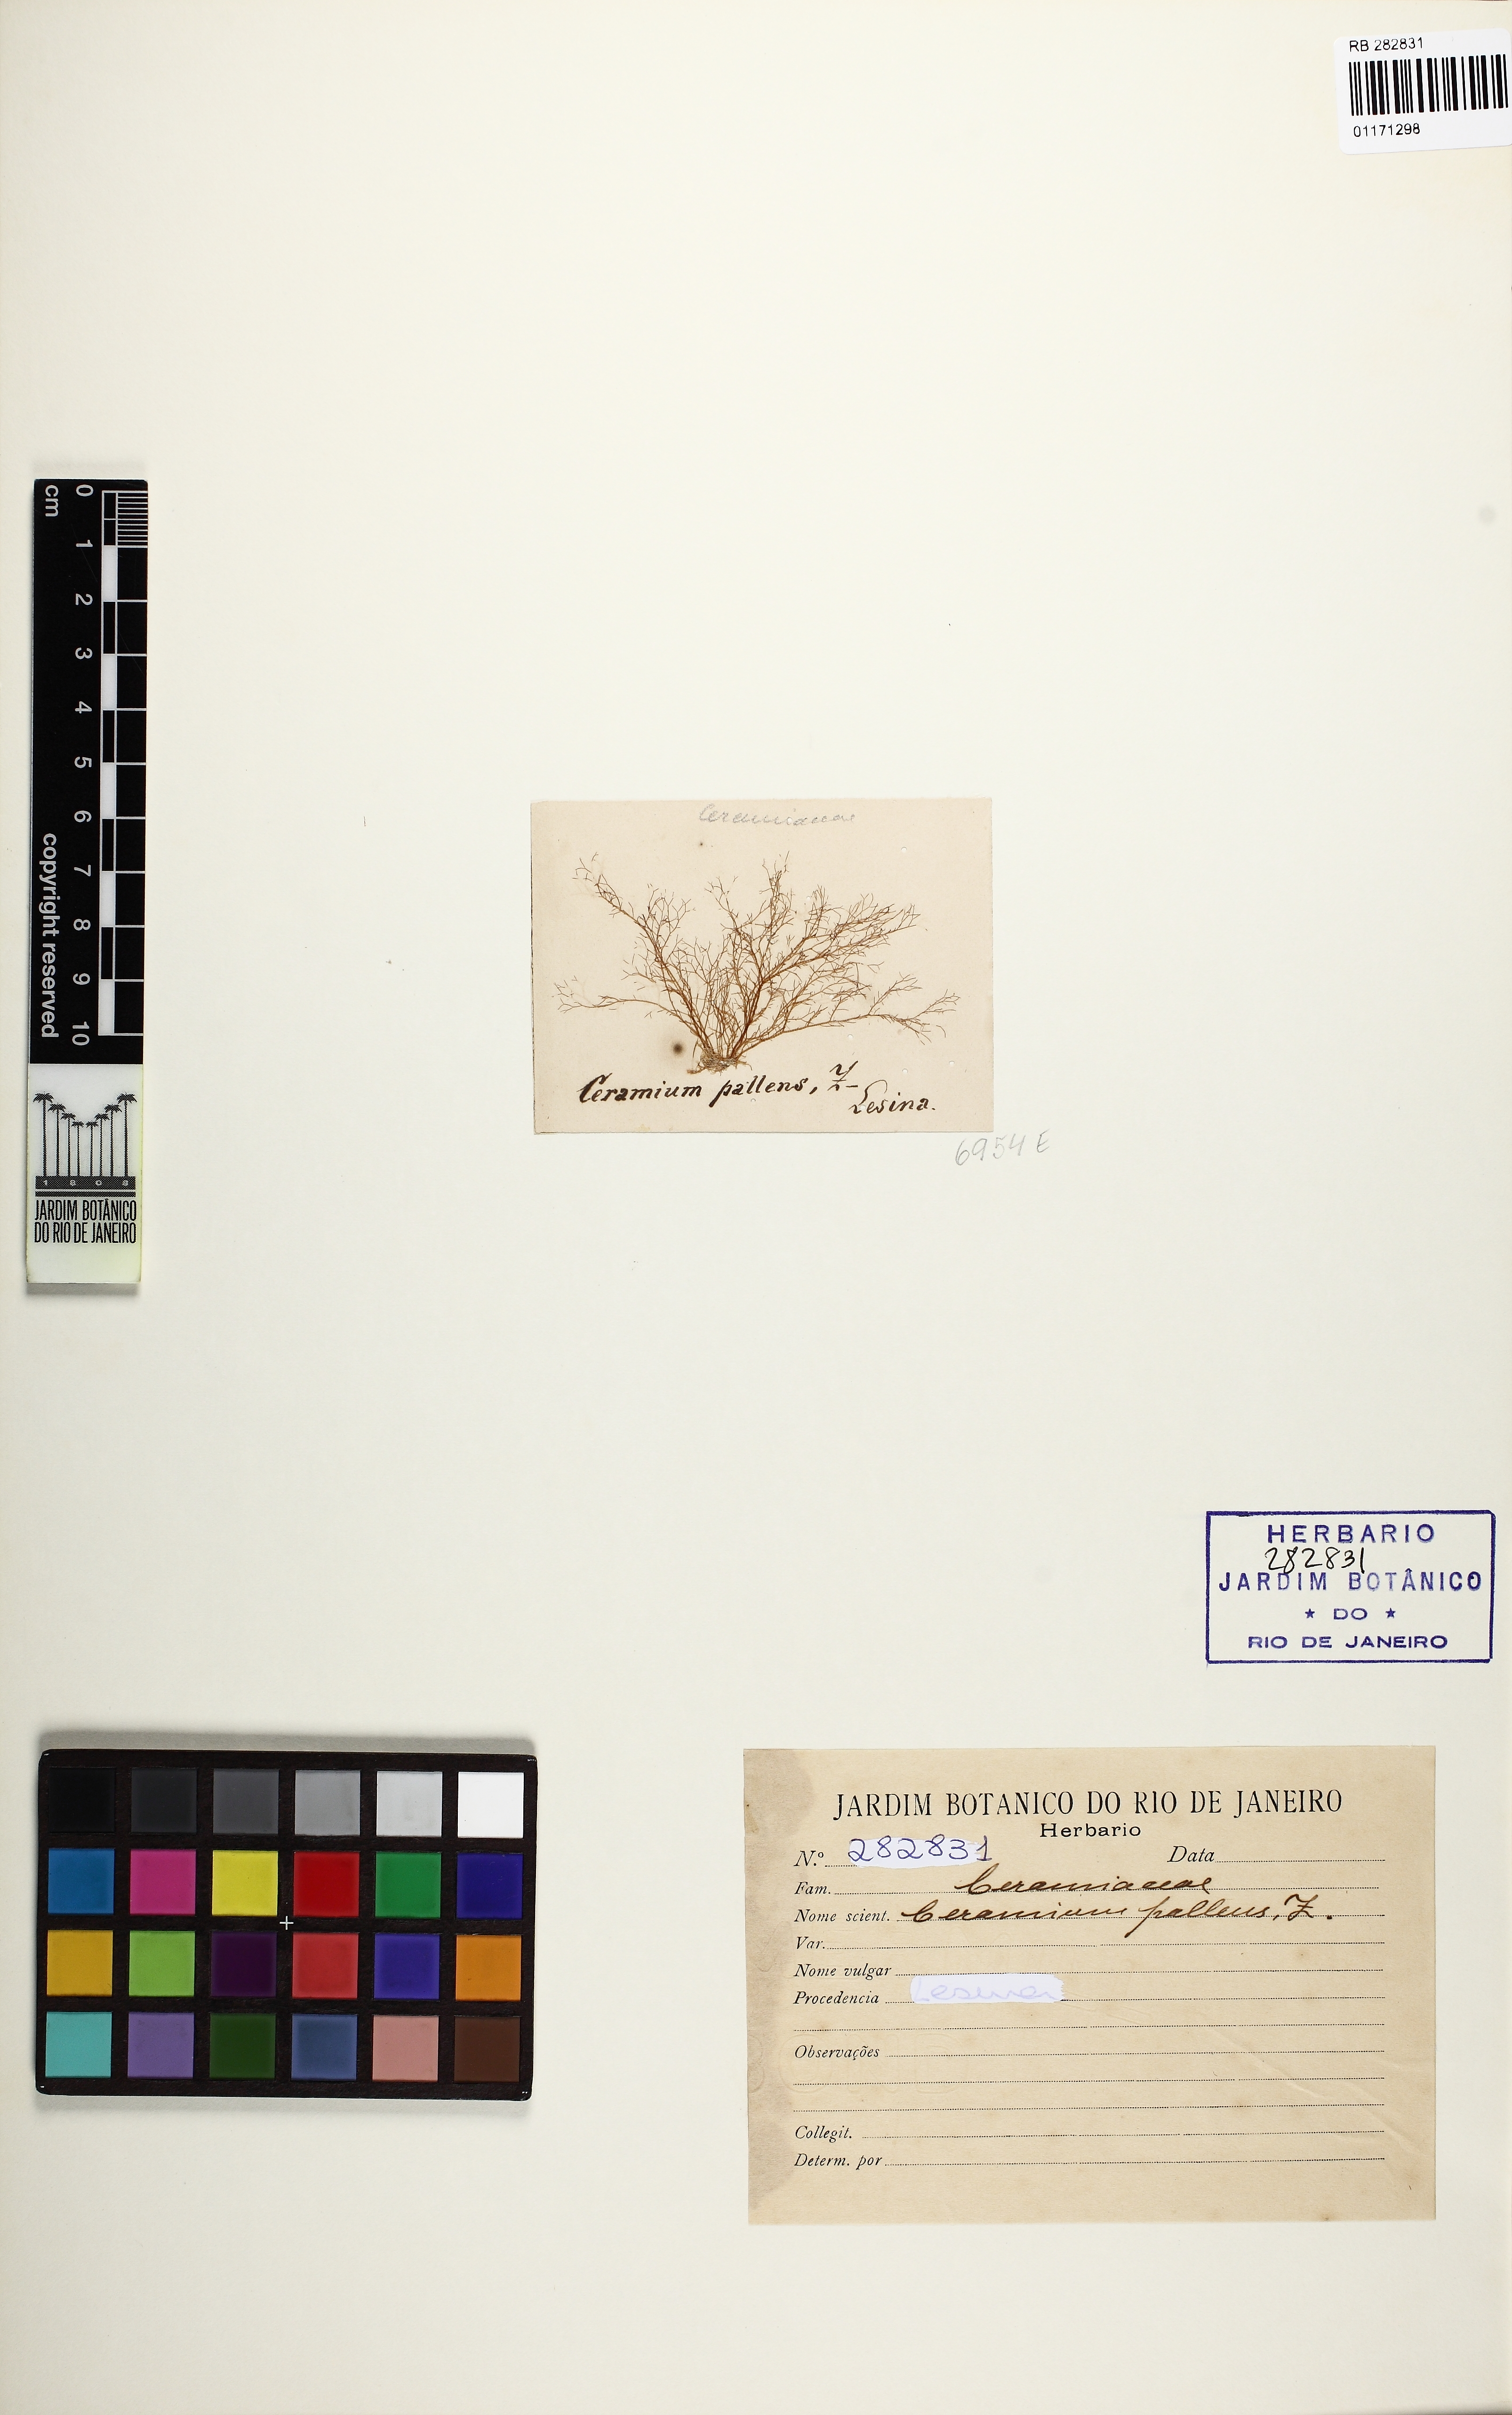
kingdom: Plantae
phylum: Rhodophyta
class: Florideophyceae
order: Ceramiales
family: Ceramiaceae
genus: Ceramium
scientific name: Ceramium deslongchampsii
